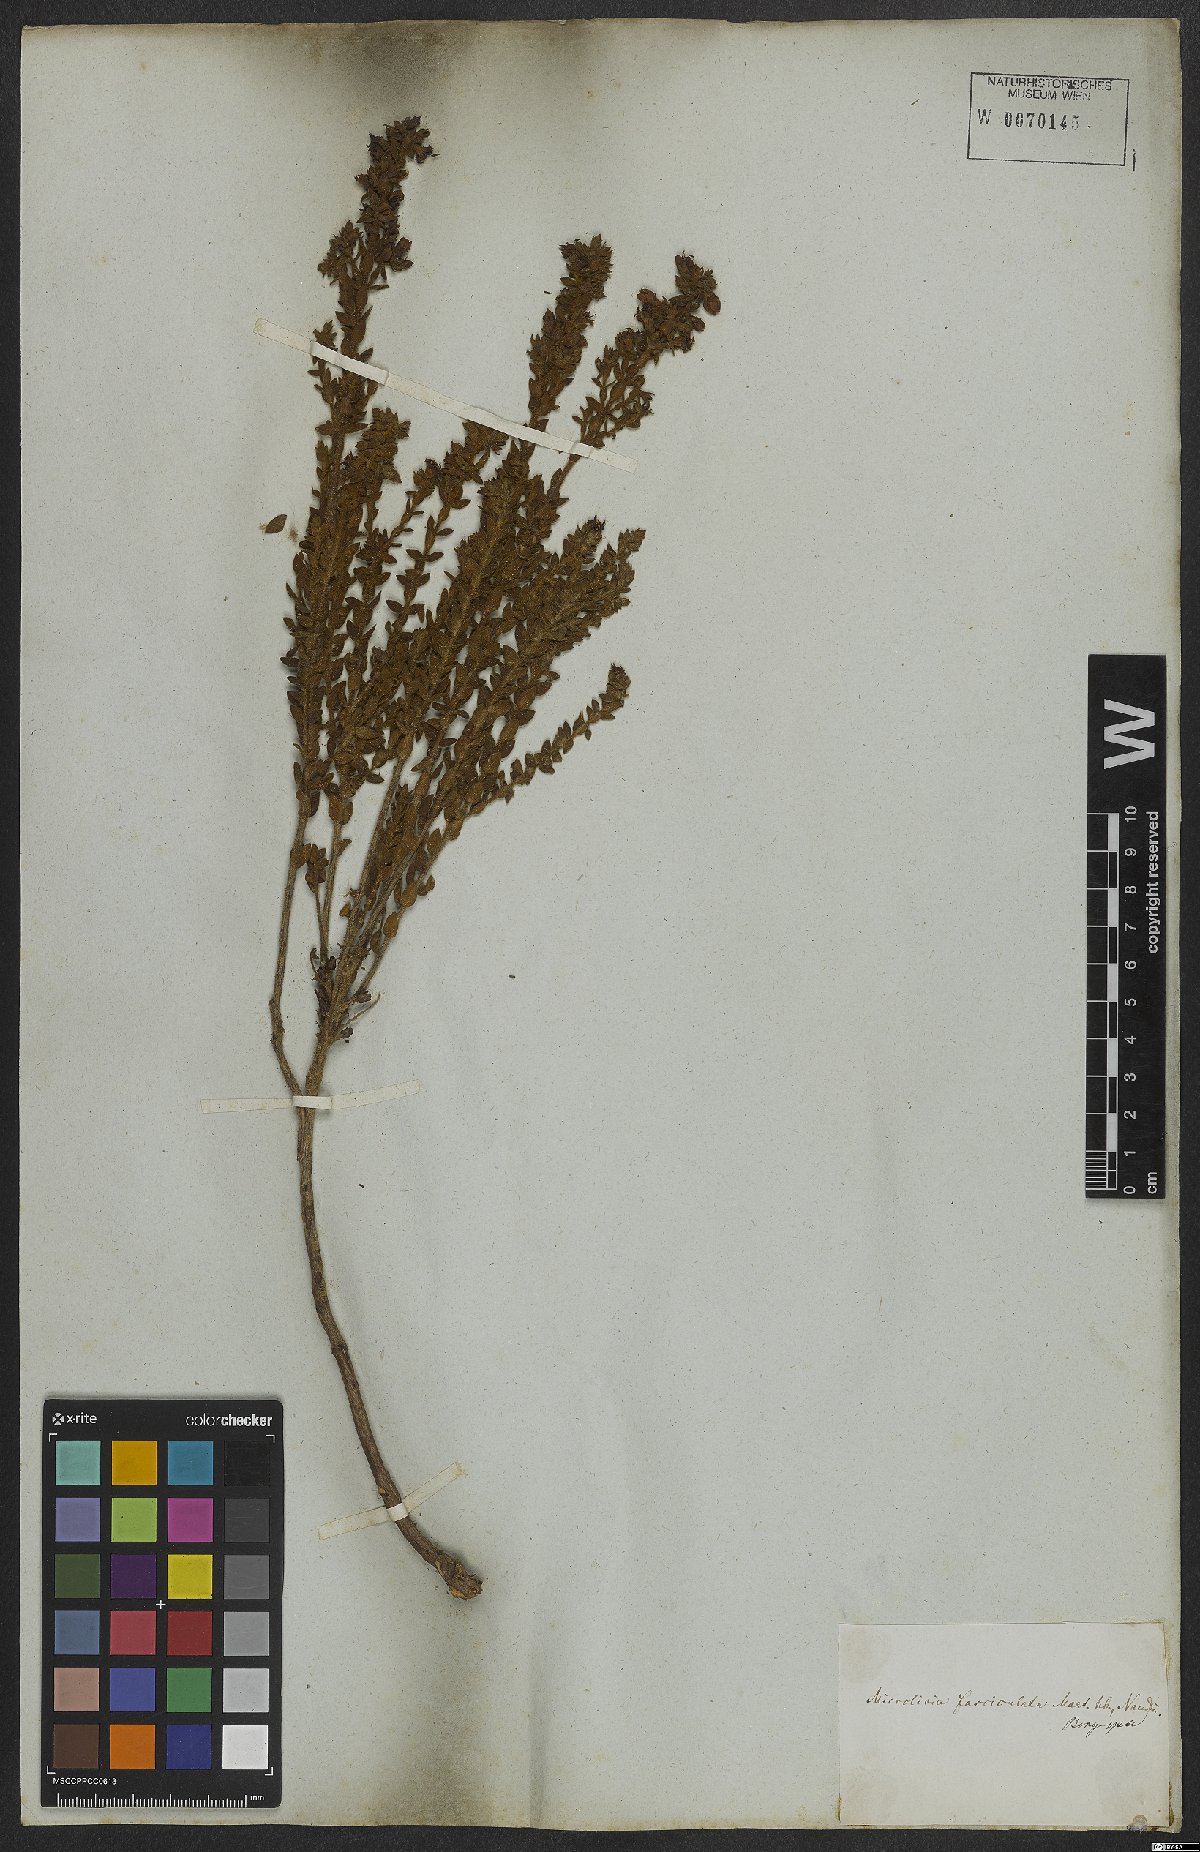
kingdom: Plantae
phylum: Tracheophyta
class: Magnoliopsida
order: Myrtales
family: Melastomataceae
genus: Microlicia
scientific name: Microlicia fasciculata
